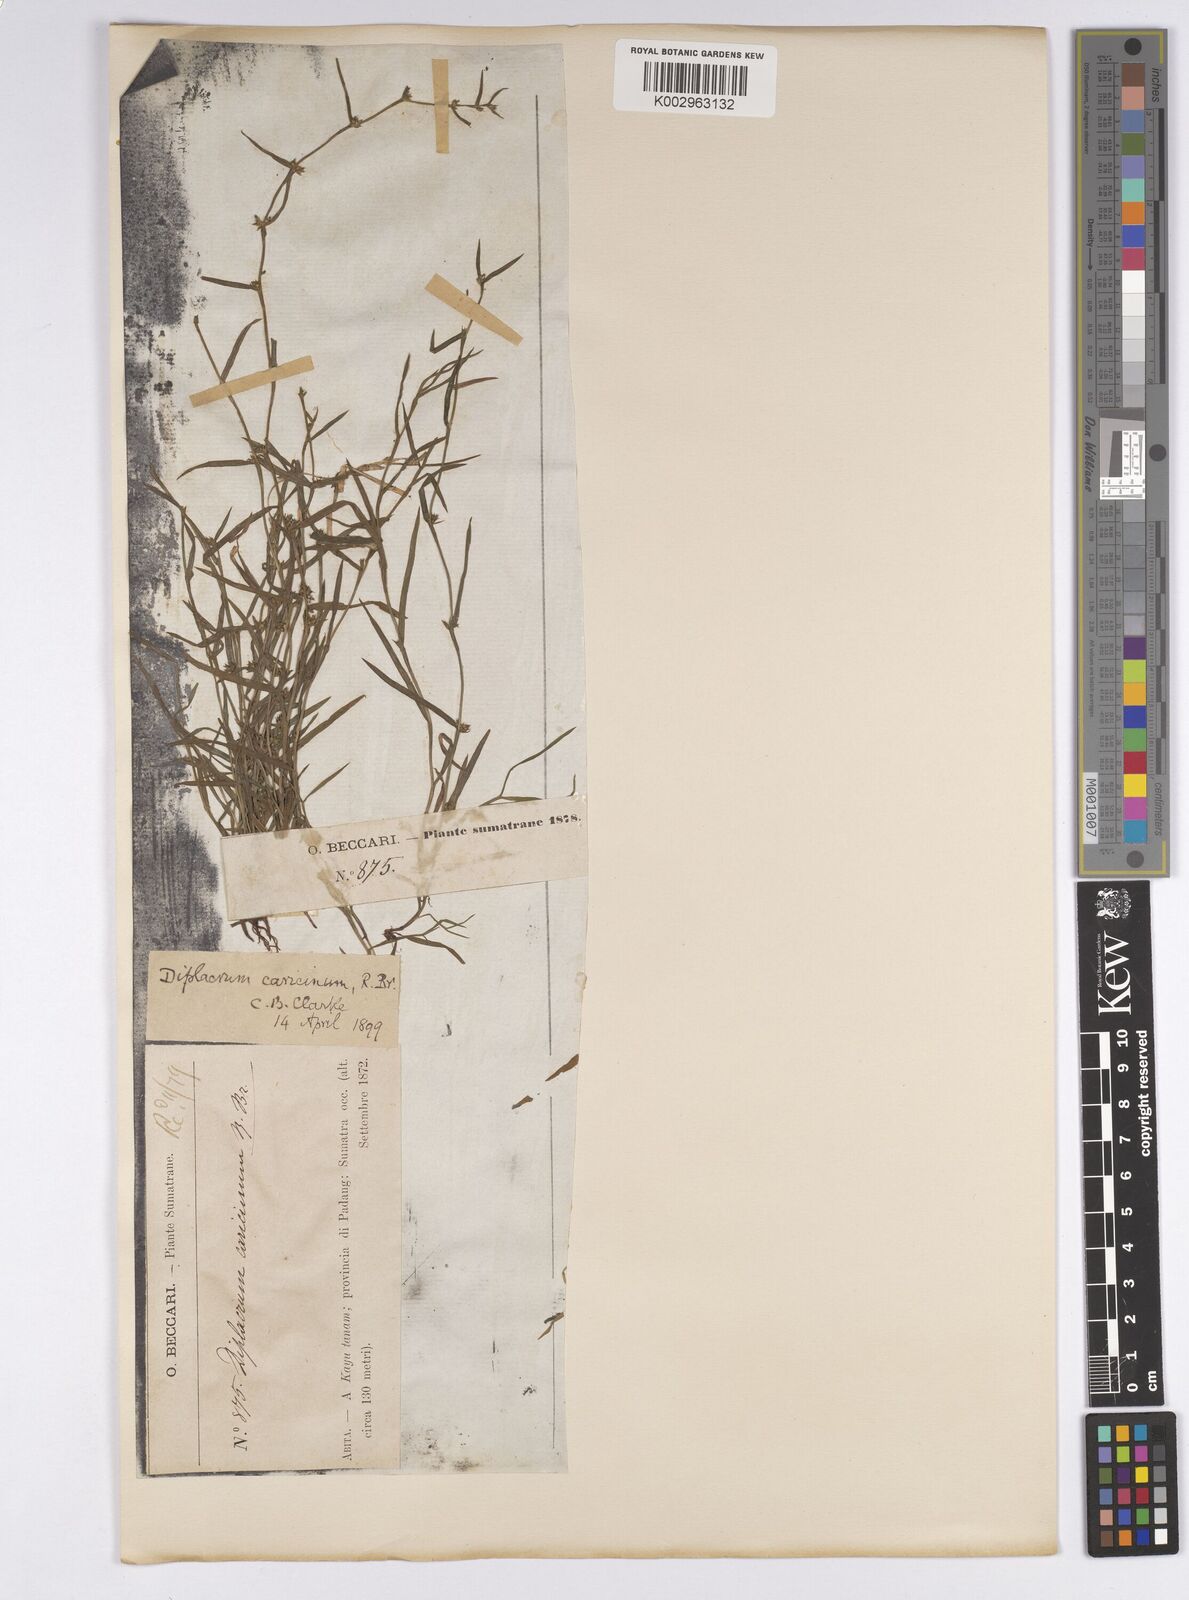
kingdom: Plantae
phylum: Tracheophyta
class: Liliopsida
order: Poales
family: Cyperaceae
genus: Diplacrum
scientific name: Diplacrum caricinum
